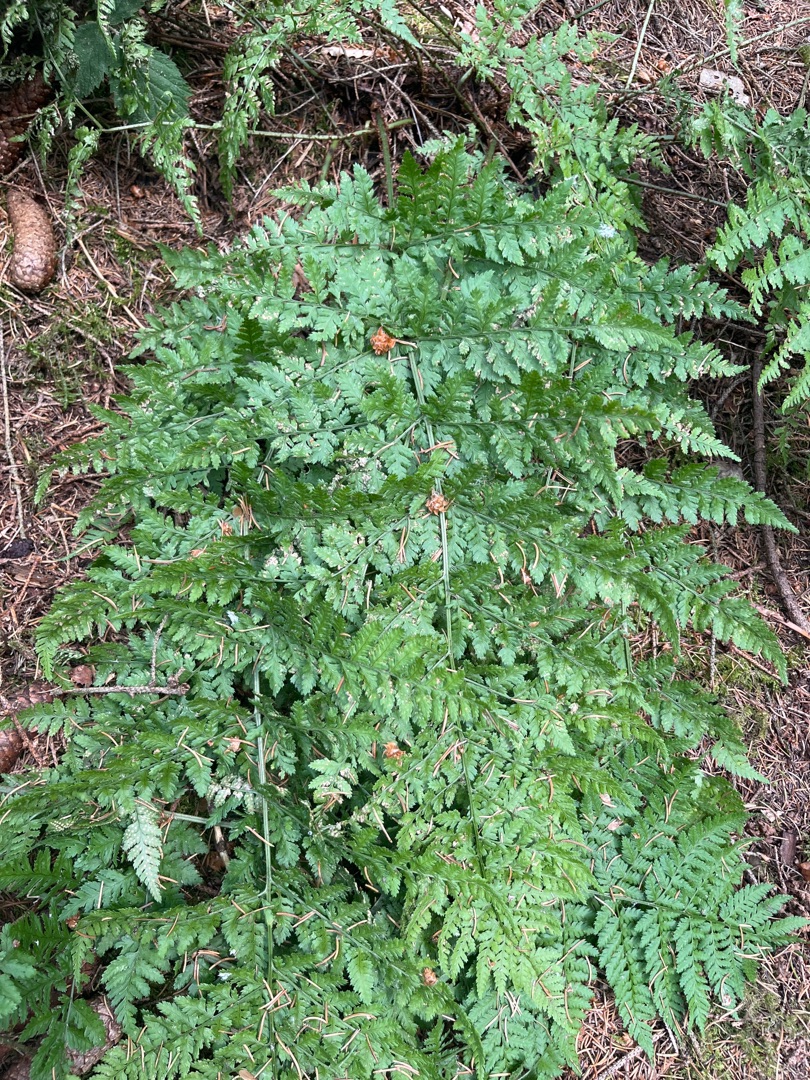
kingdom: Plantae
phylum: Tracheophyta
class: Polypodiopsida
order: Polypodiales
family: Dryopteridaceae
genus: Dryopteris
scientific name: Dryopteris dilatata
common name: Bredbladet mangeløv
